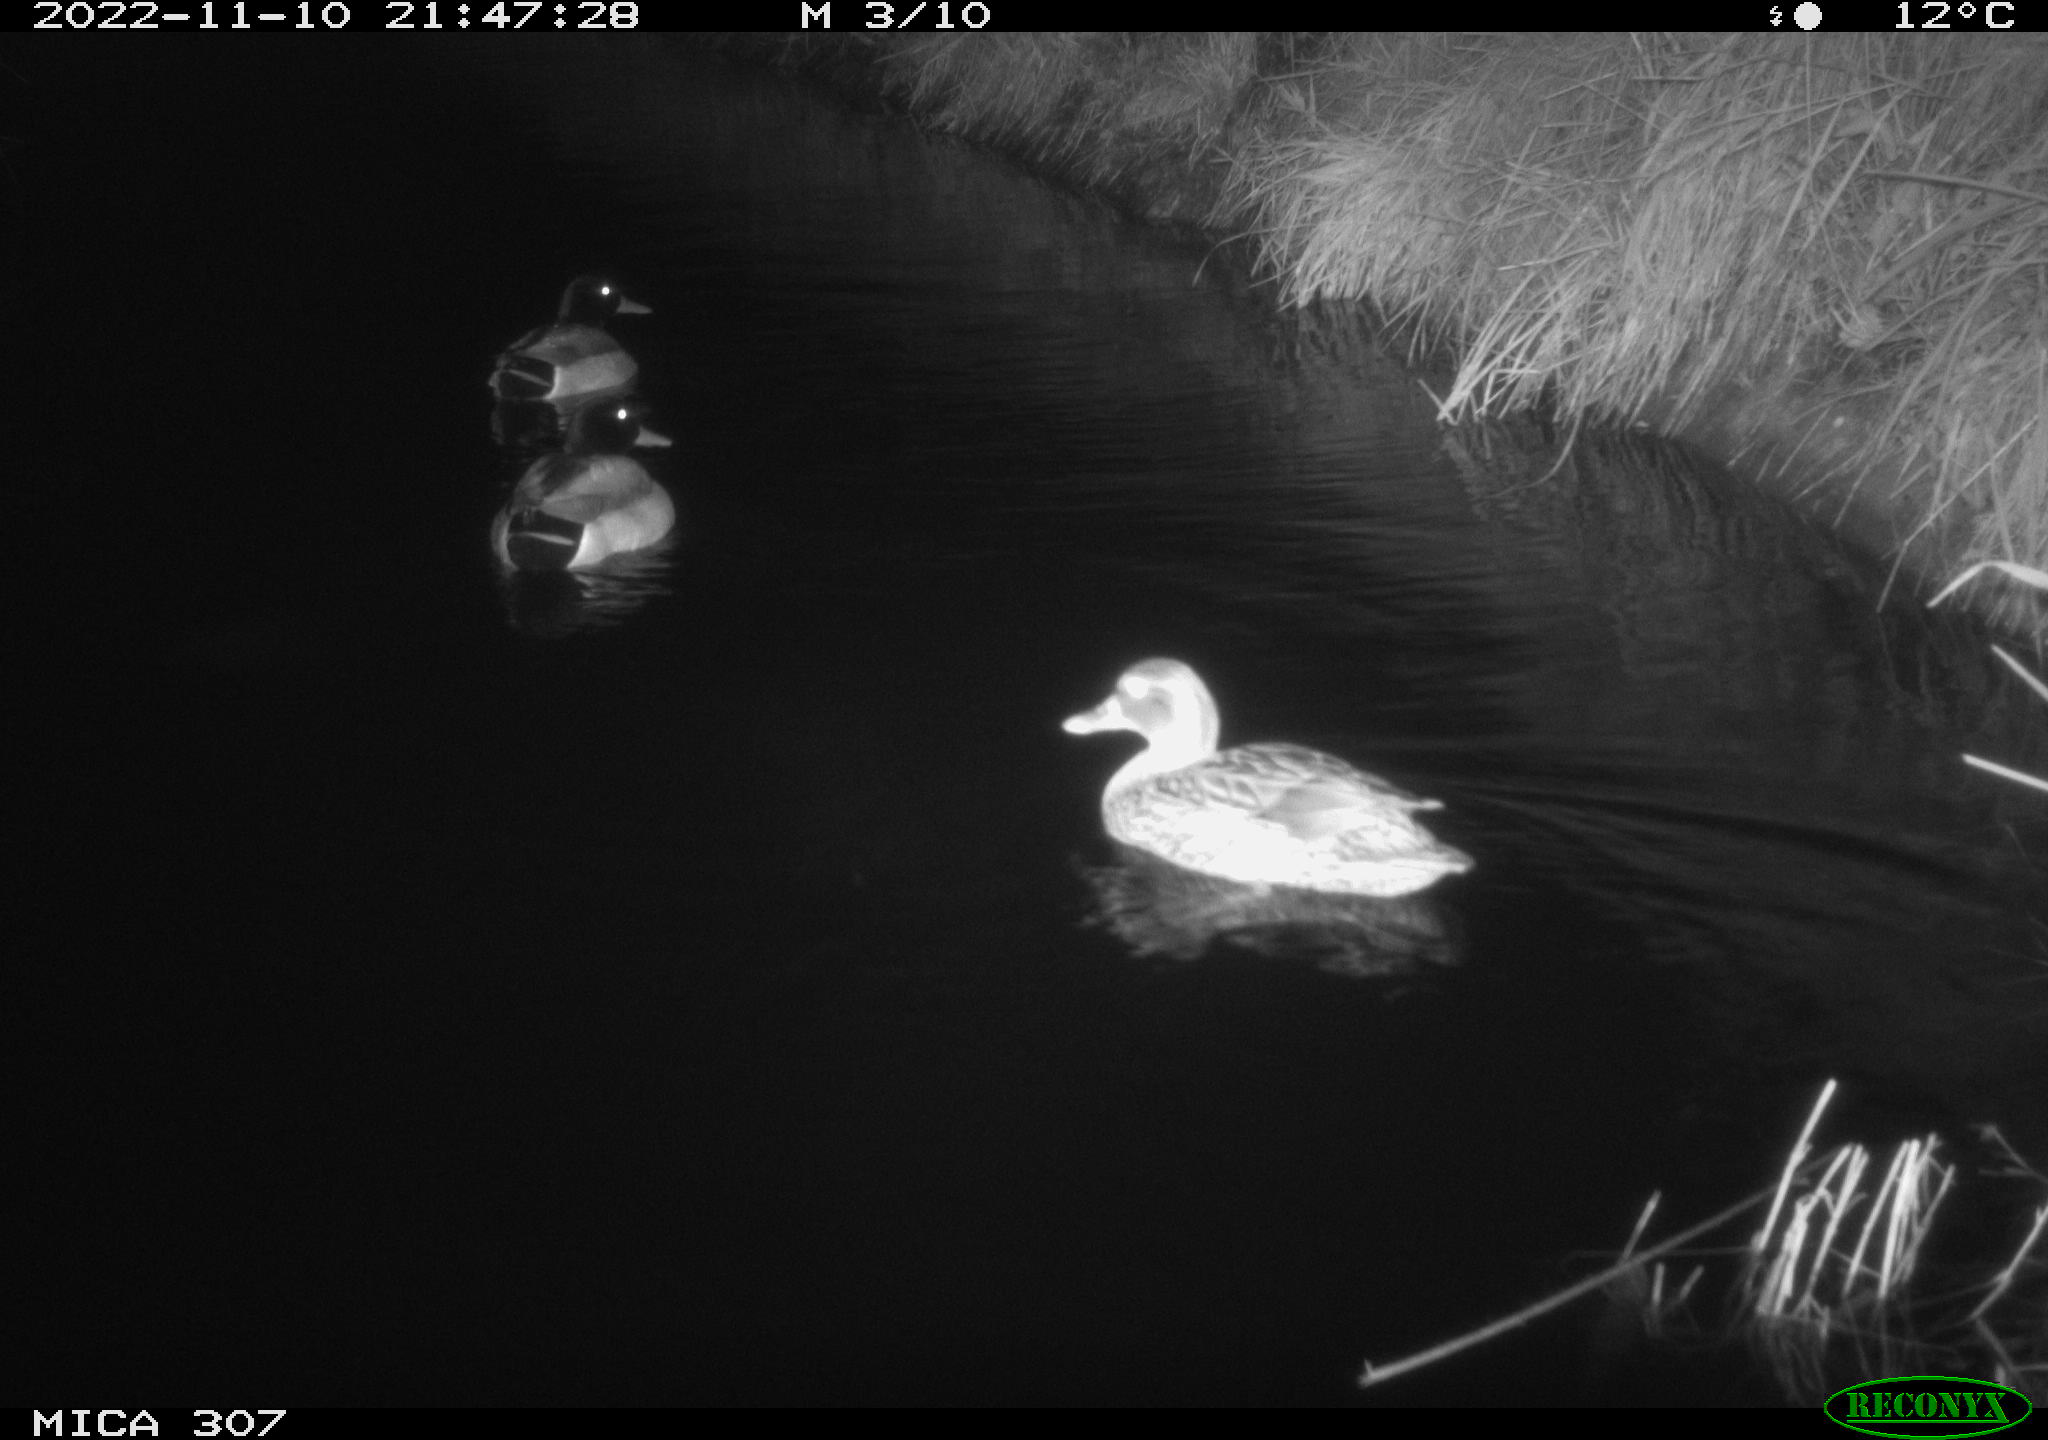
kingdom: Animalia
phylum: Chordata
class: Aves
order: Anseriformes
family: Anatidae
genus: Anas
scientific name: Anas
